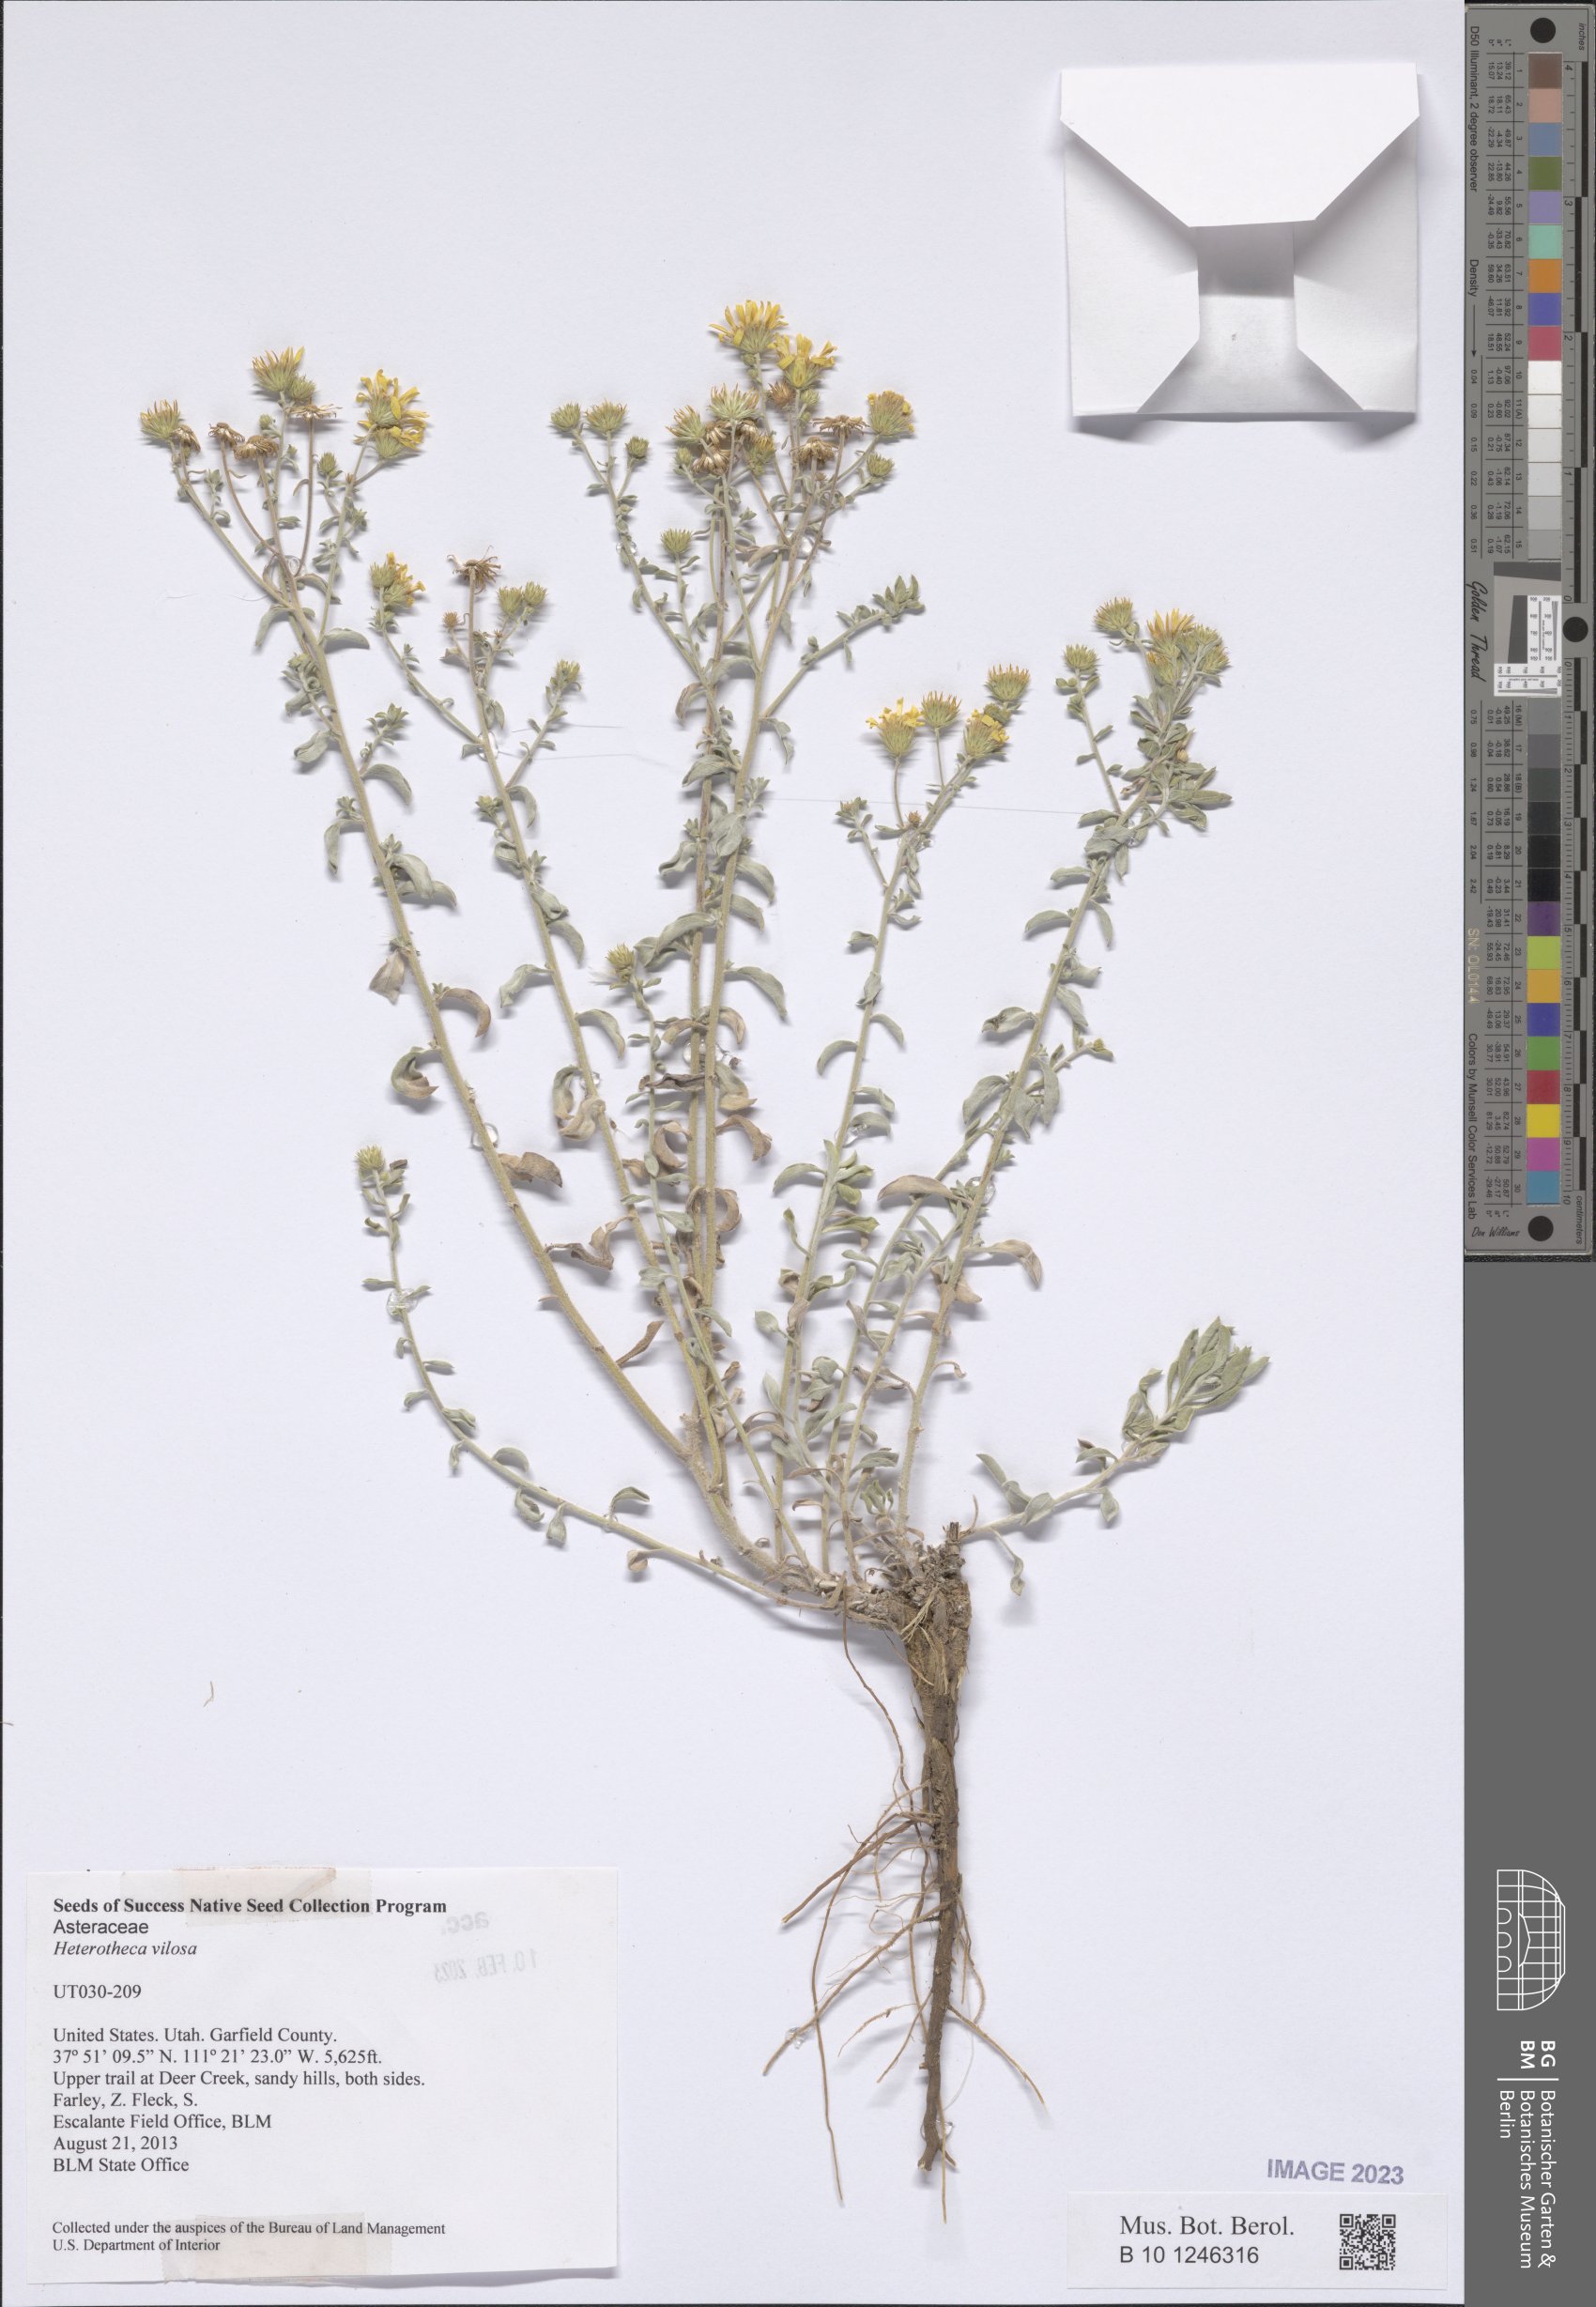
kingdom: Plantae
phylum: Tracheophyta
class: Magnoliopsida
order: Asterales
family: Asteraceae
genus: Heterotheca
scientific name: Heterotheca villosa
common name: Hairy false goldenaster
